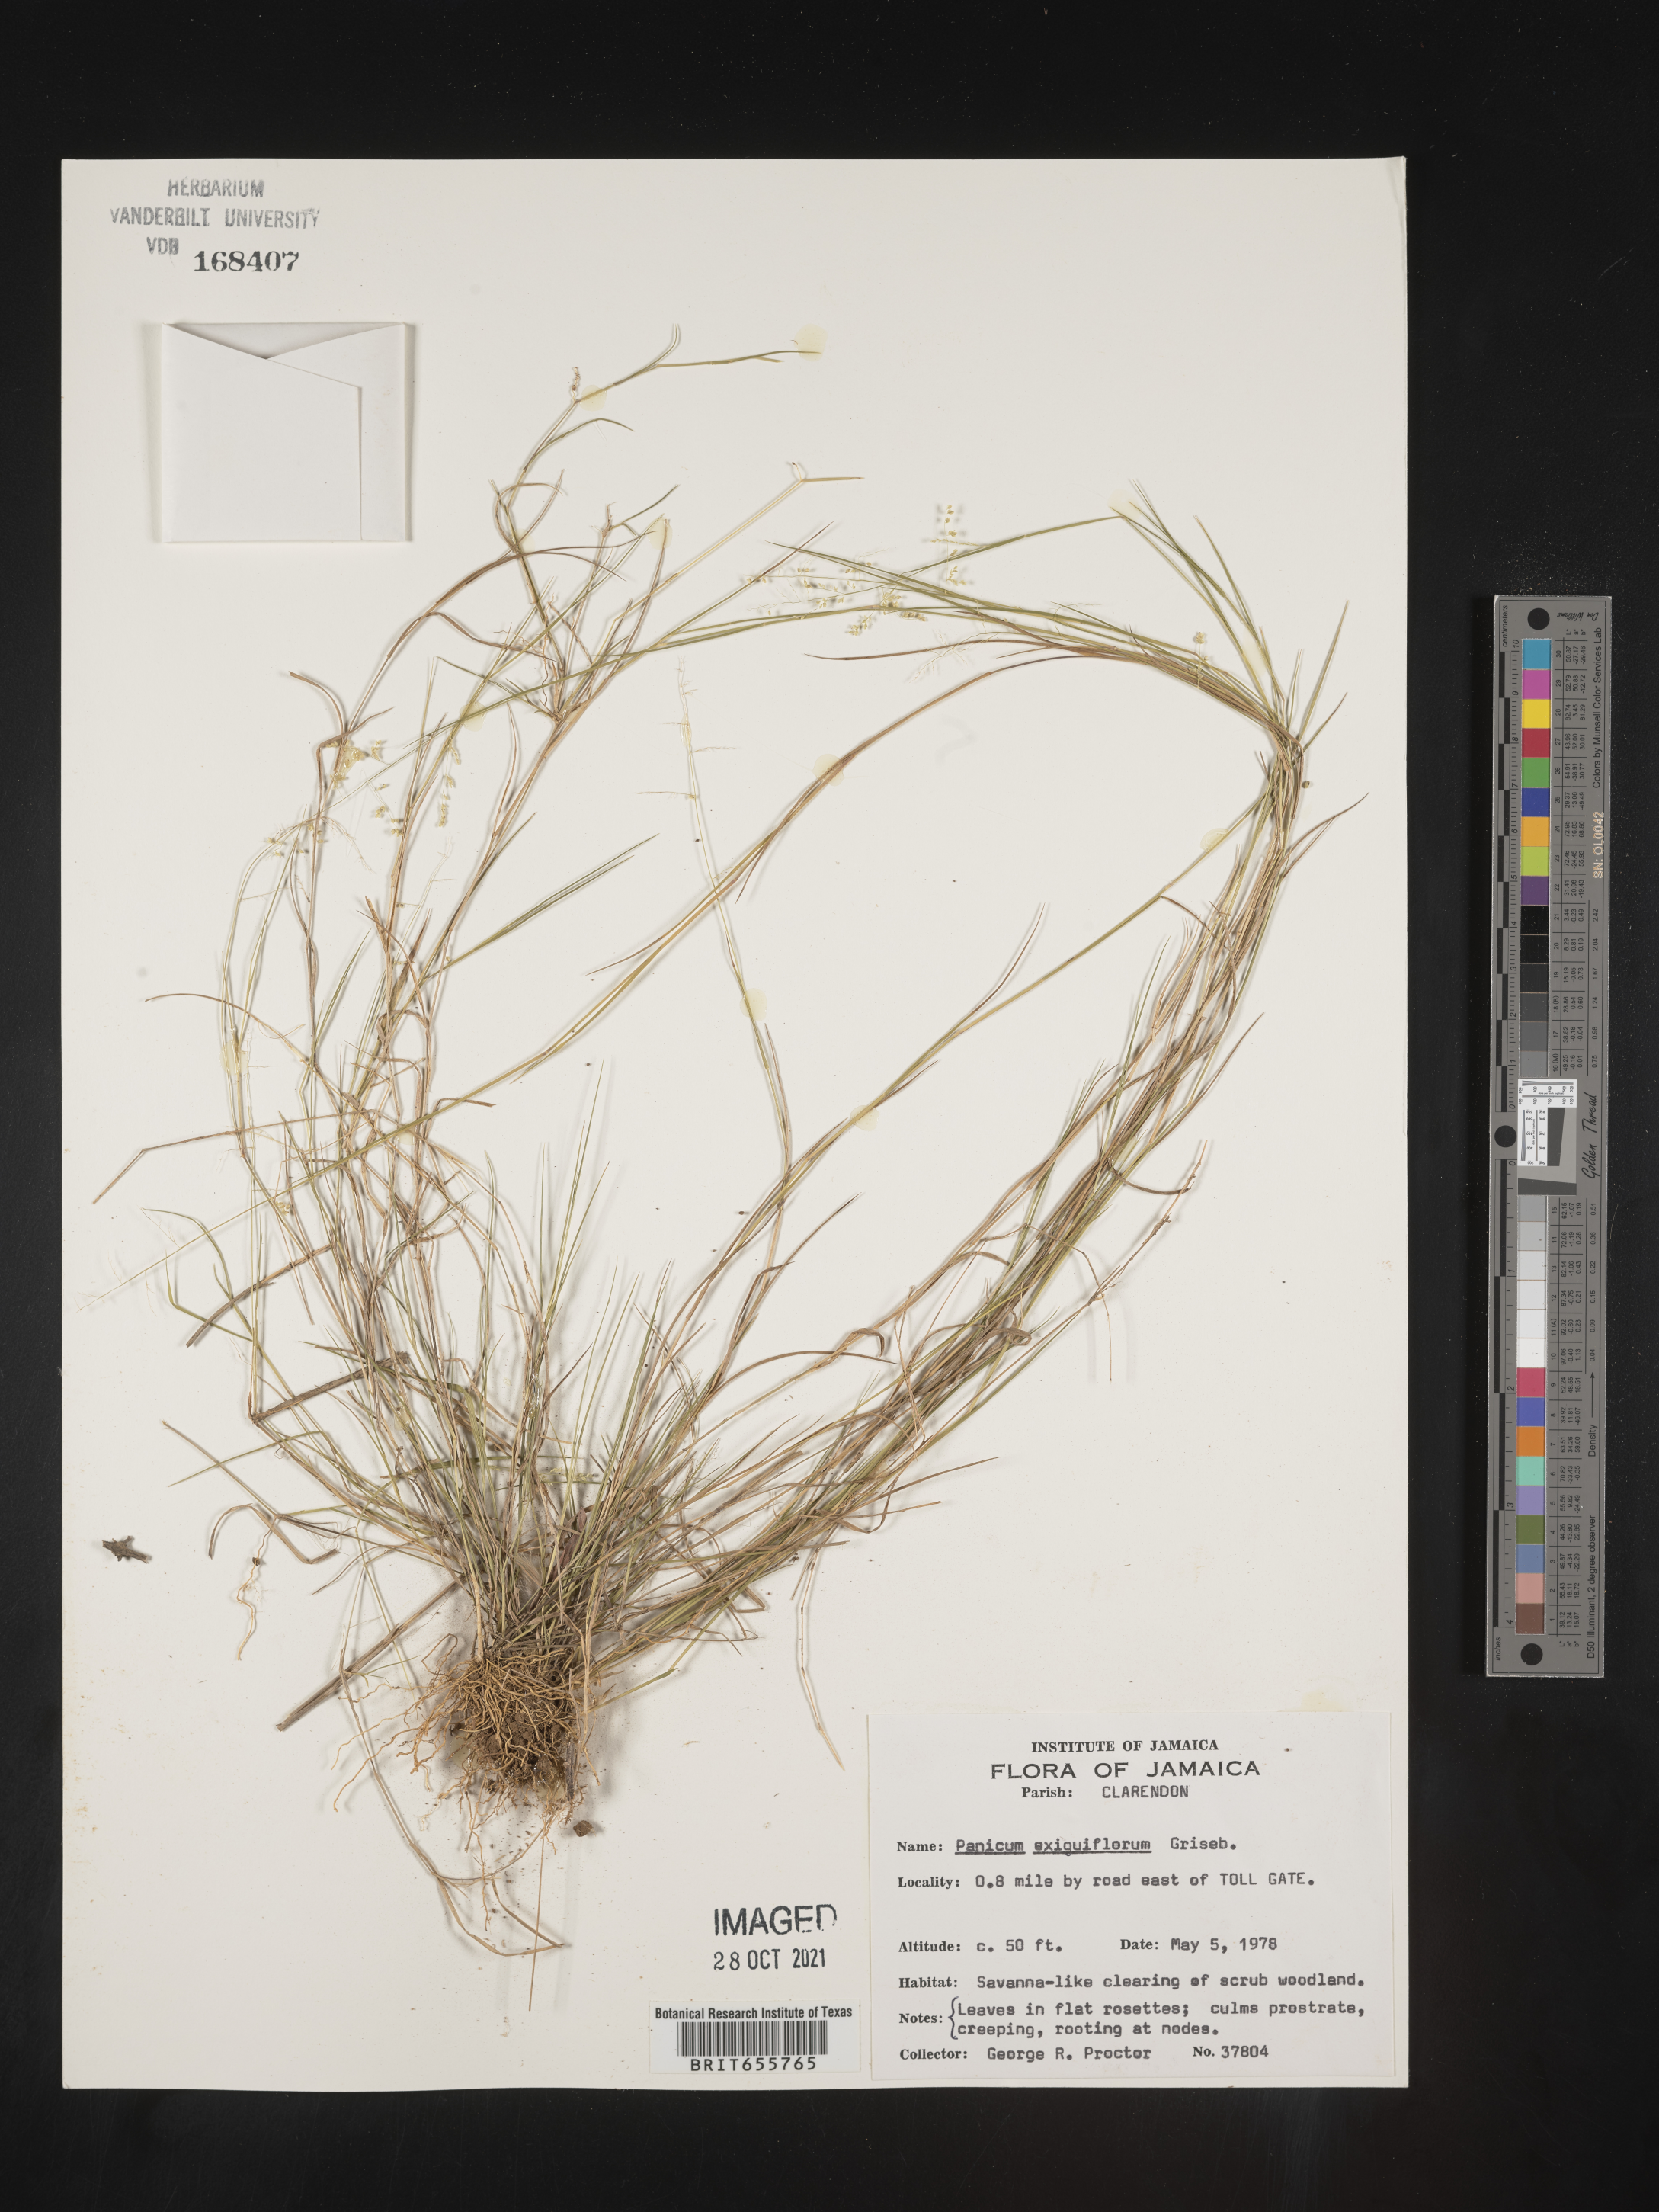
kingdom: Plantae
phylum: Tracheophyta
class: Liliopsida
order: Poales
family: Poaceae
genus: Panicum
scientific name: Panicum
